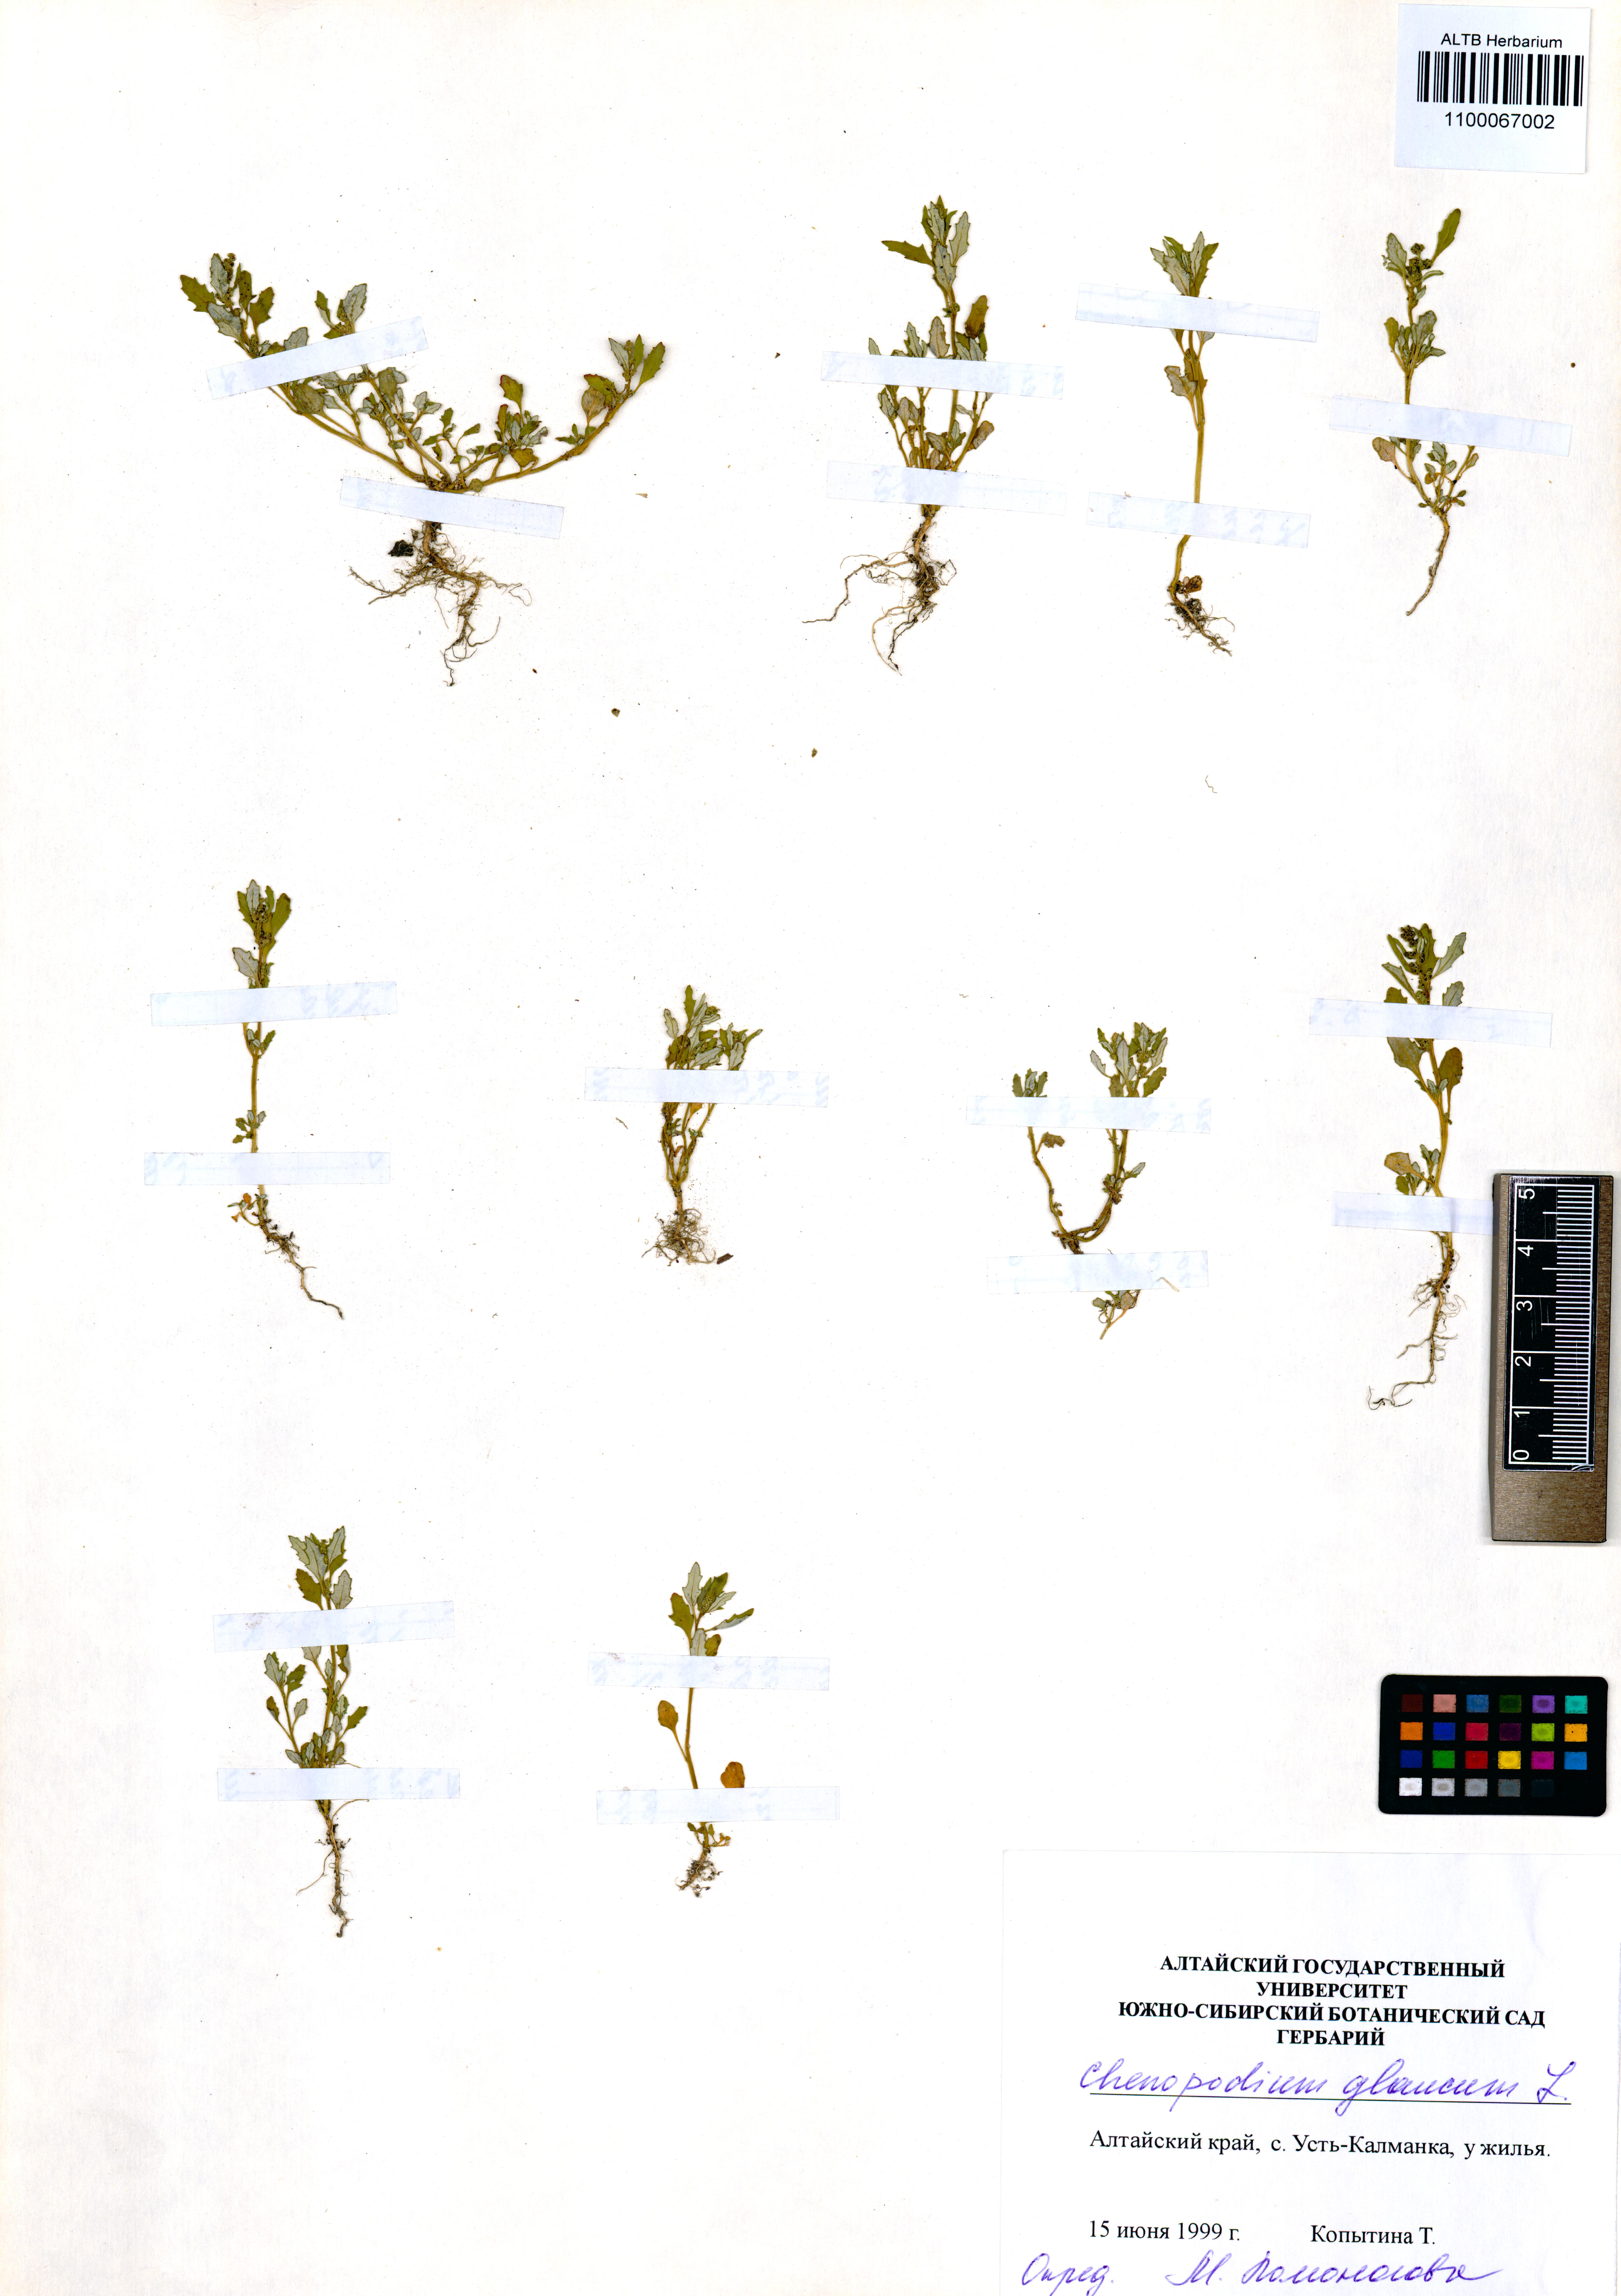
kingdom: Plantae
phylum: Tracheophyta
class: Magnoliopsida
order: Caryophyllales
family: Amaranthaceae
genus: Oxybasis
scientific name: Oxybasis glauca
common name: Glaucous goosefoot
